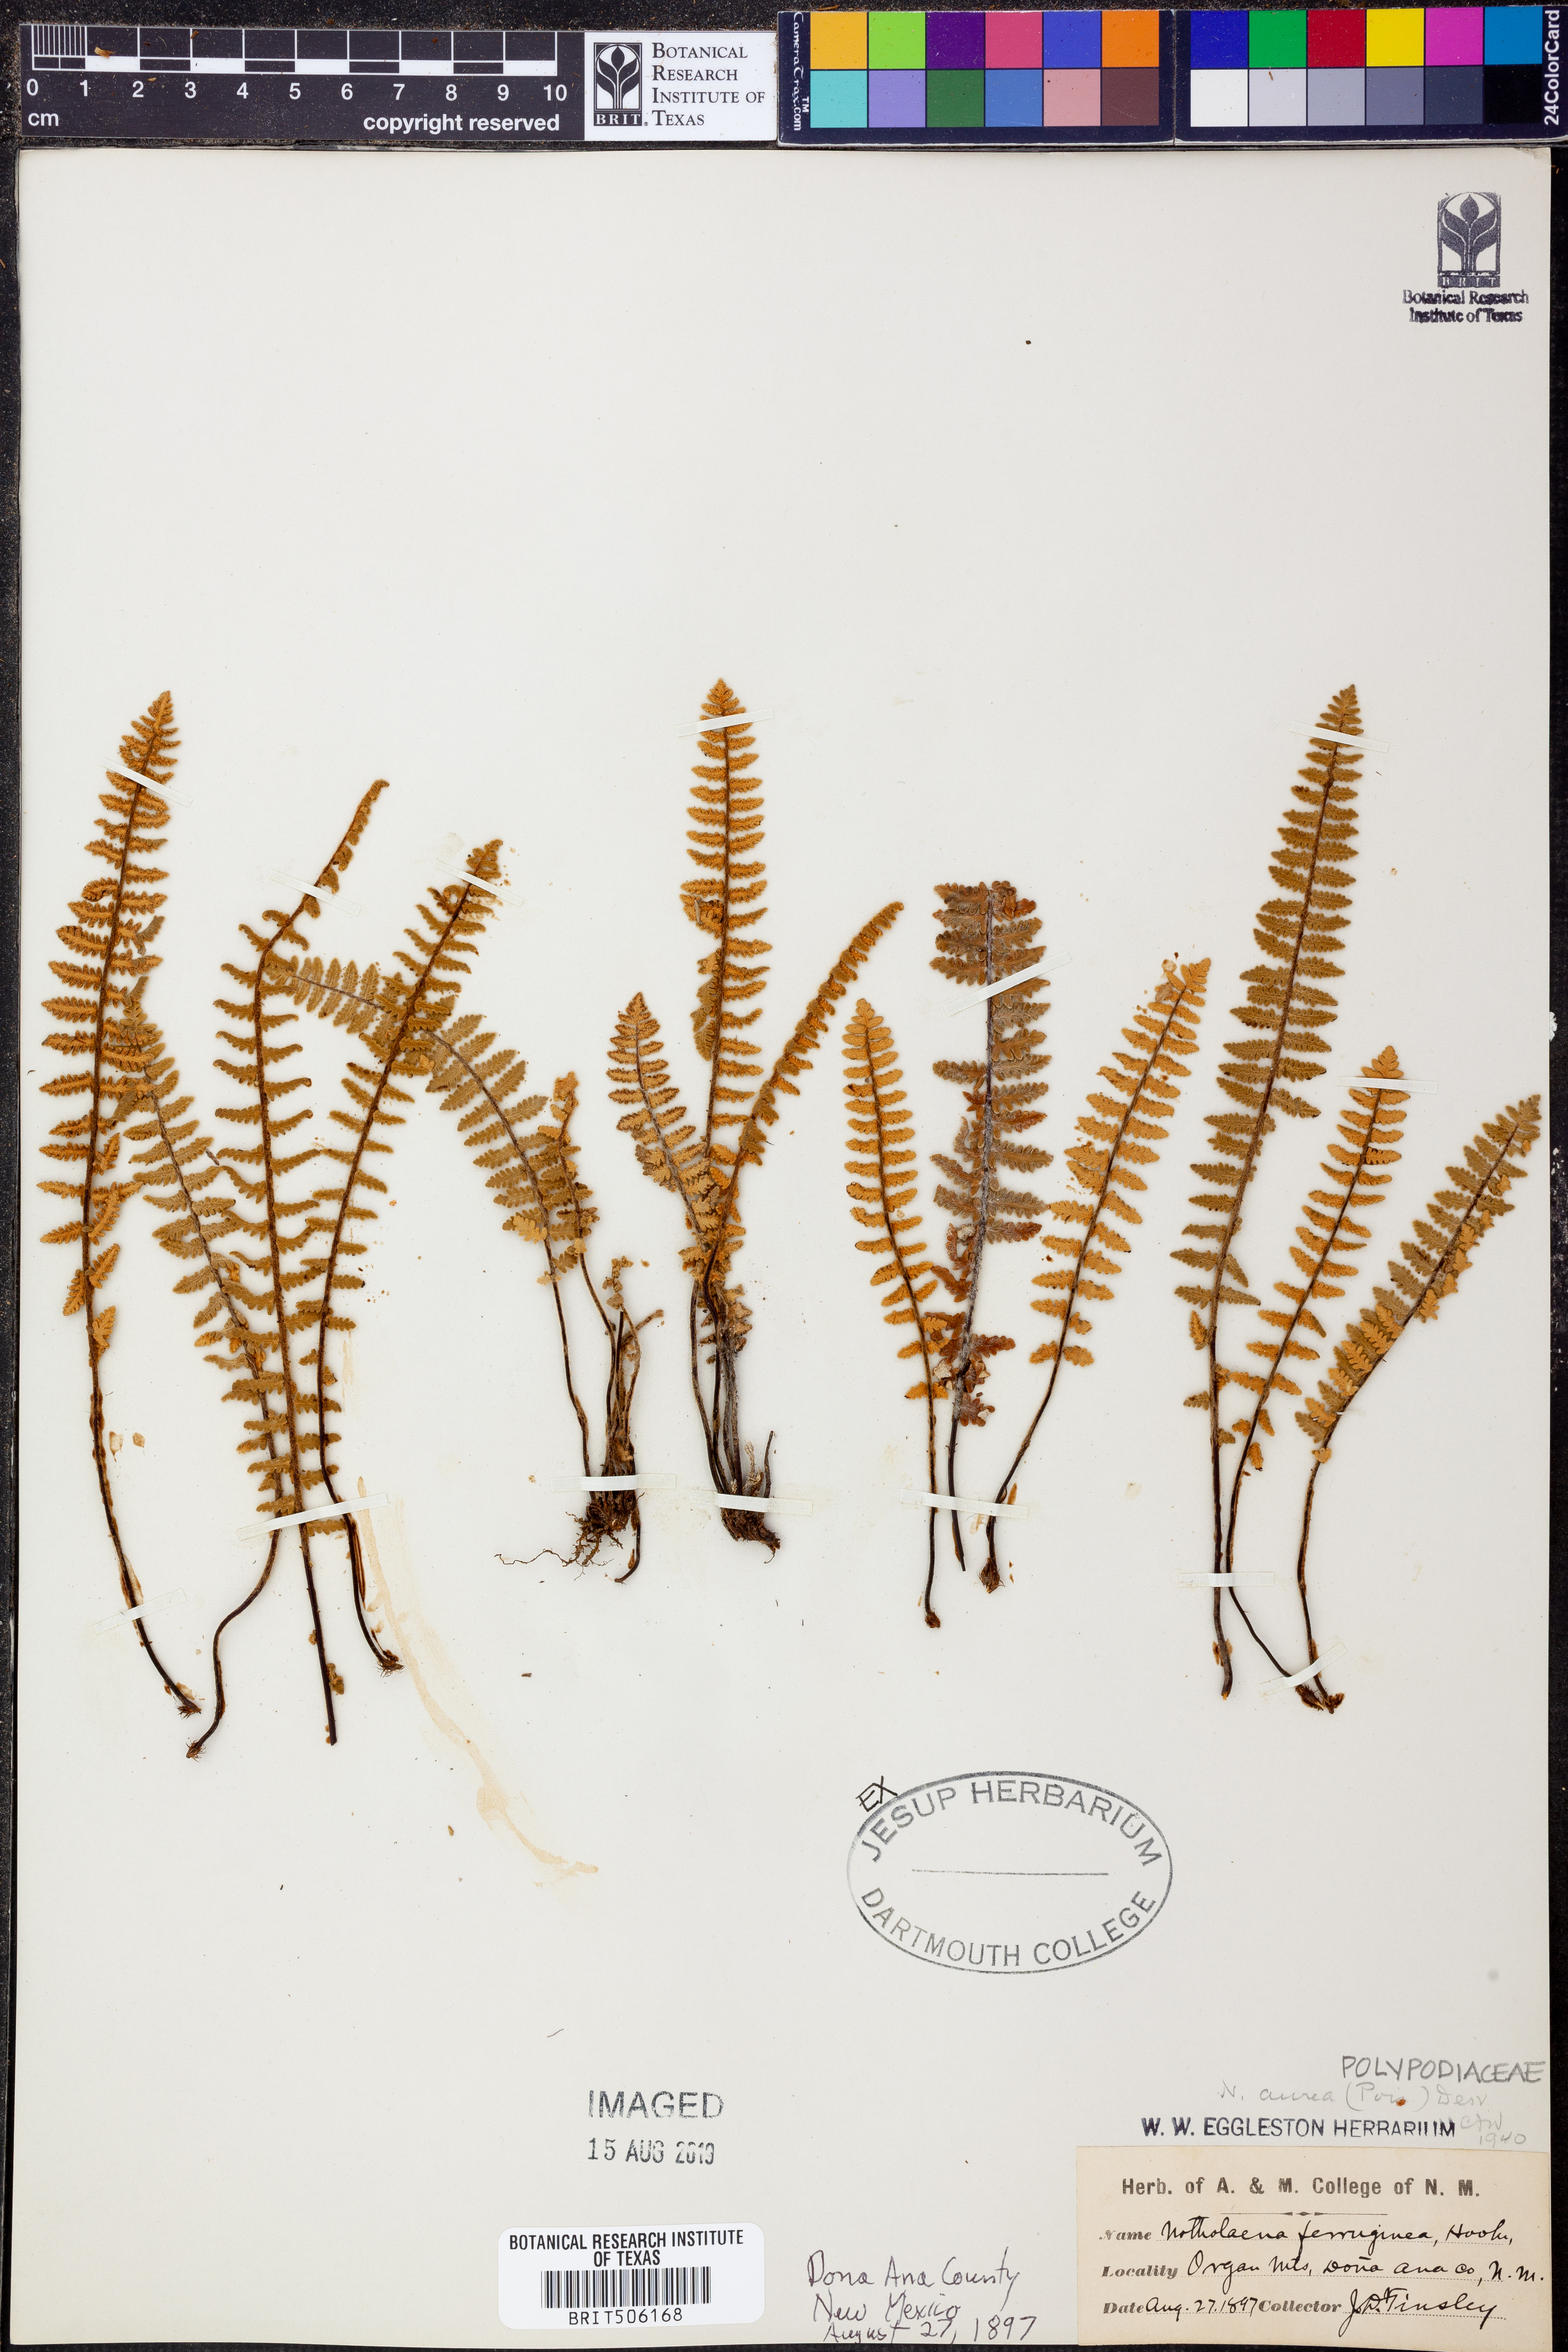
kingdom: Plantae
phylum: Tracheophyta
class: Polypodiopsida
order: Polypodiales
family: Pteridaceae
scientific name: Pteridaceae
